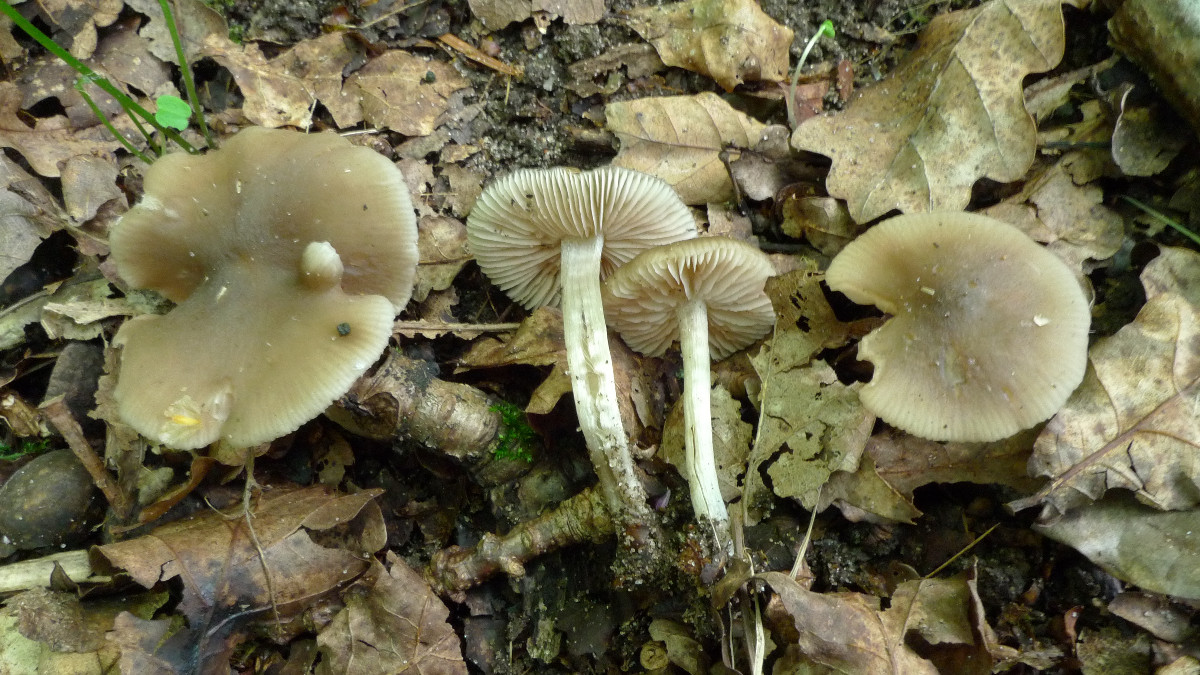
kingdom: Fungi
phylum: Basidiomycota
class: Agaricomycetes
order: Agaricales
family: Entolomataceae
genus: Entoloma
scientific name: Entoloma sordidulum
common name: smudsig rødblad
